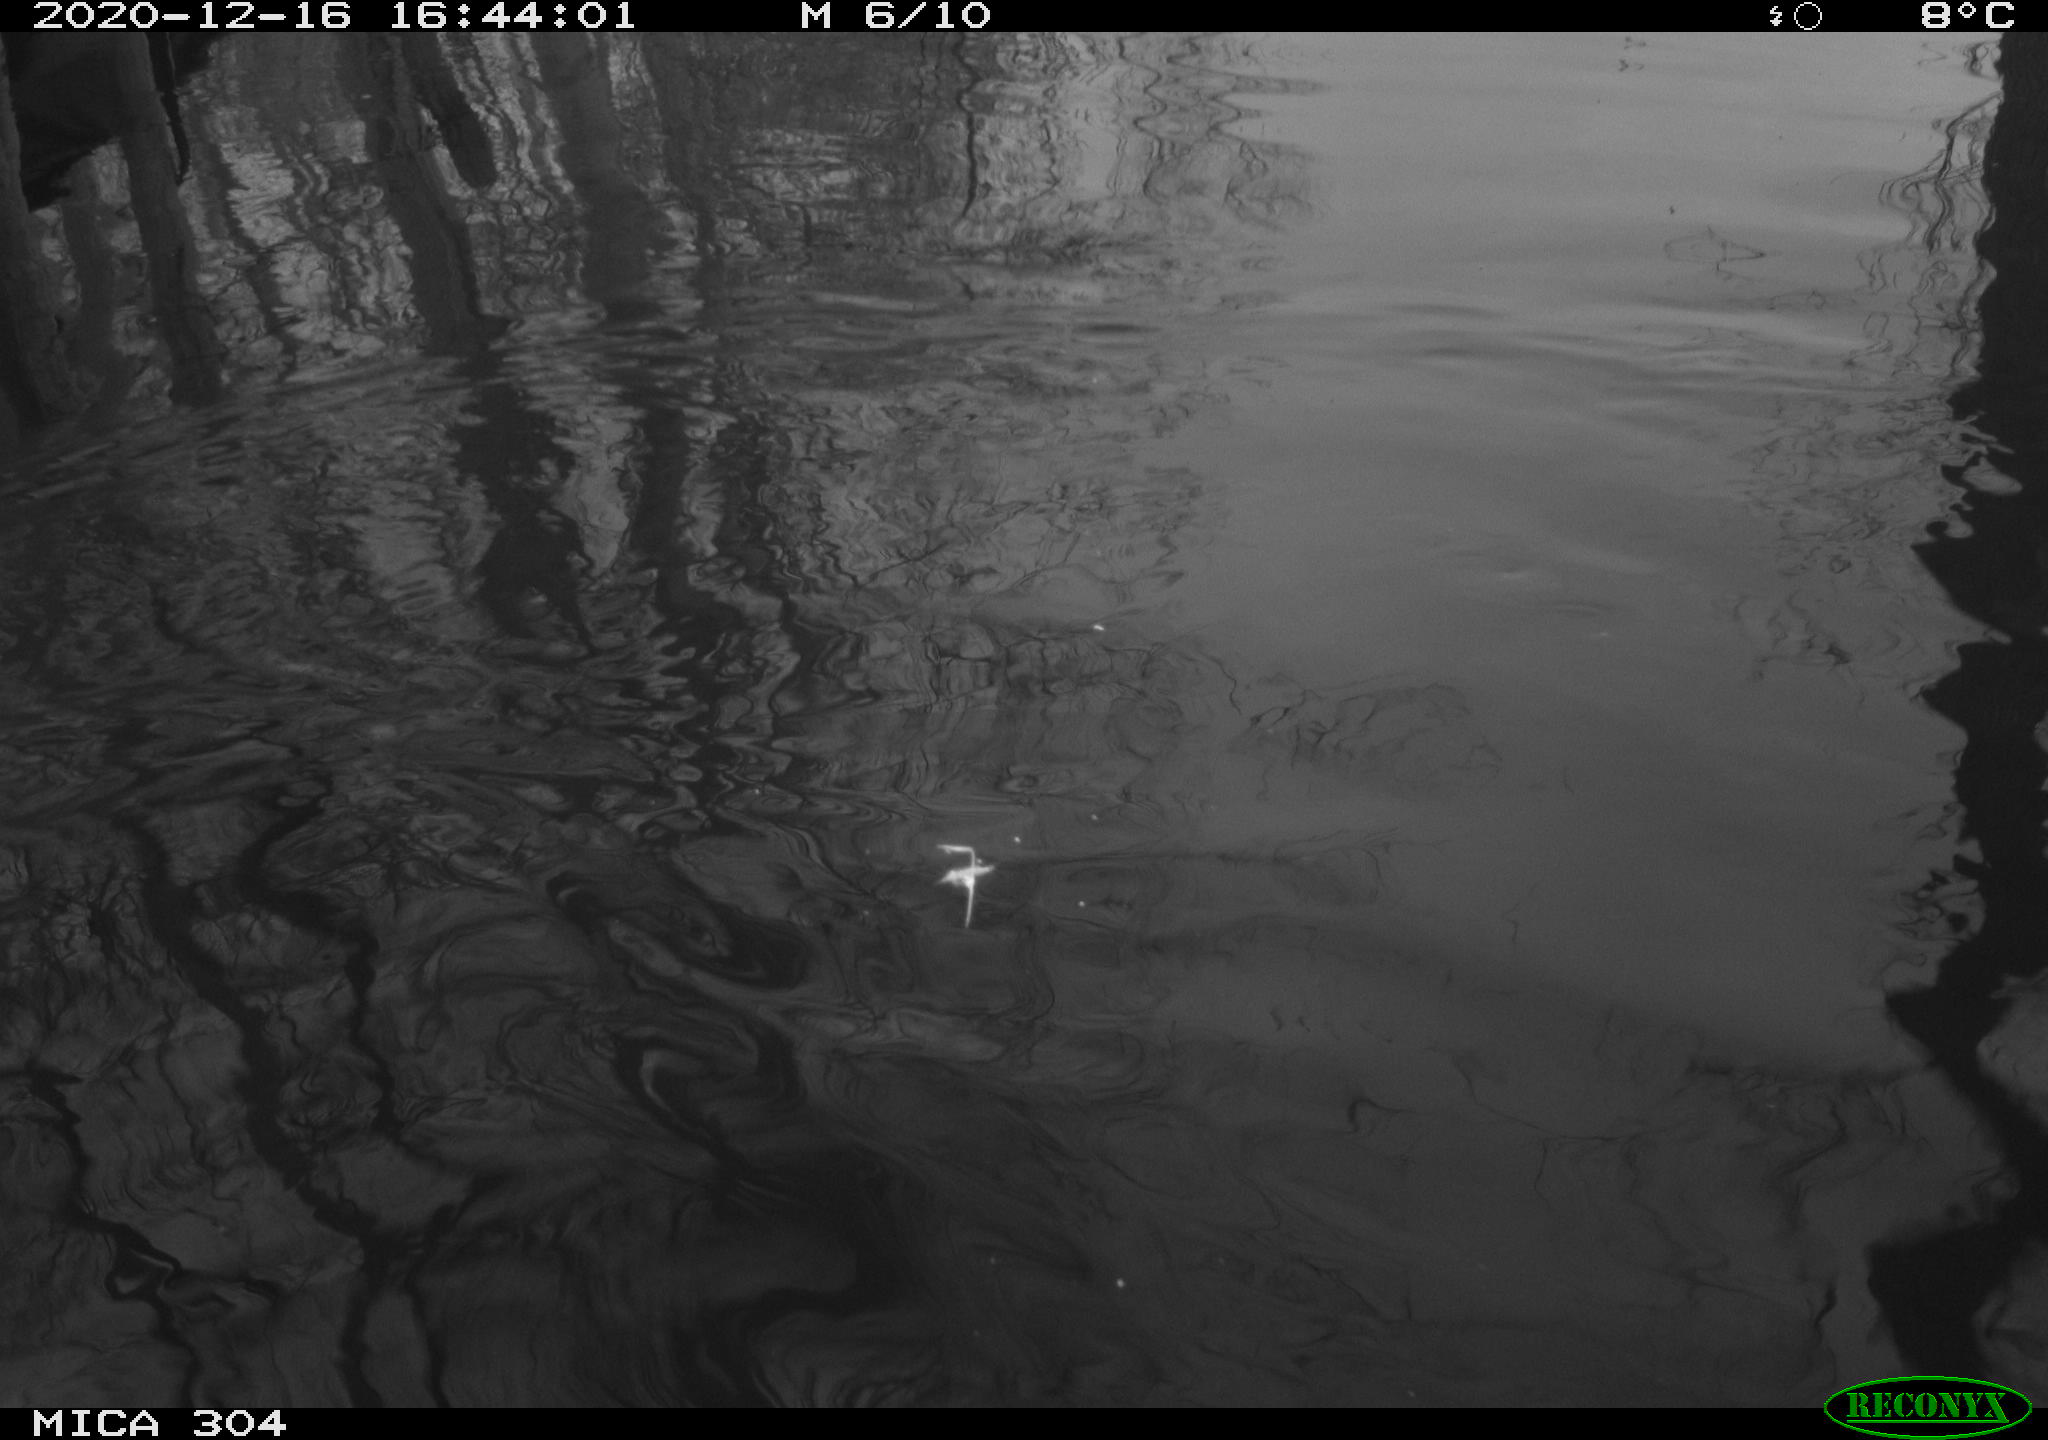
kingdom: Animalia
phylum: Chordata
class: Aves
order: Gruiformes
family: Rallidae
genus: Gallinula
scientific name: Gallinula chloropus
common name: Common moorhen
